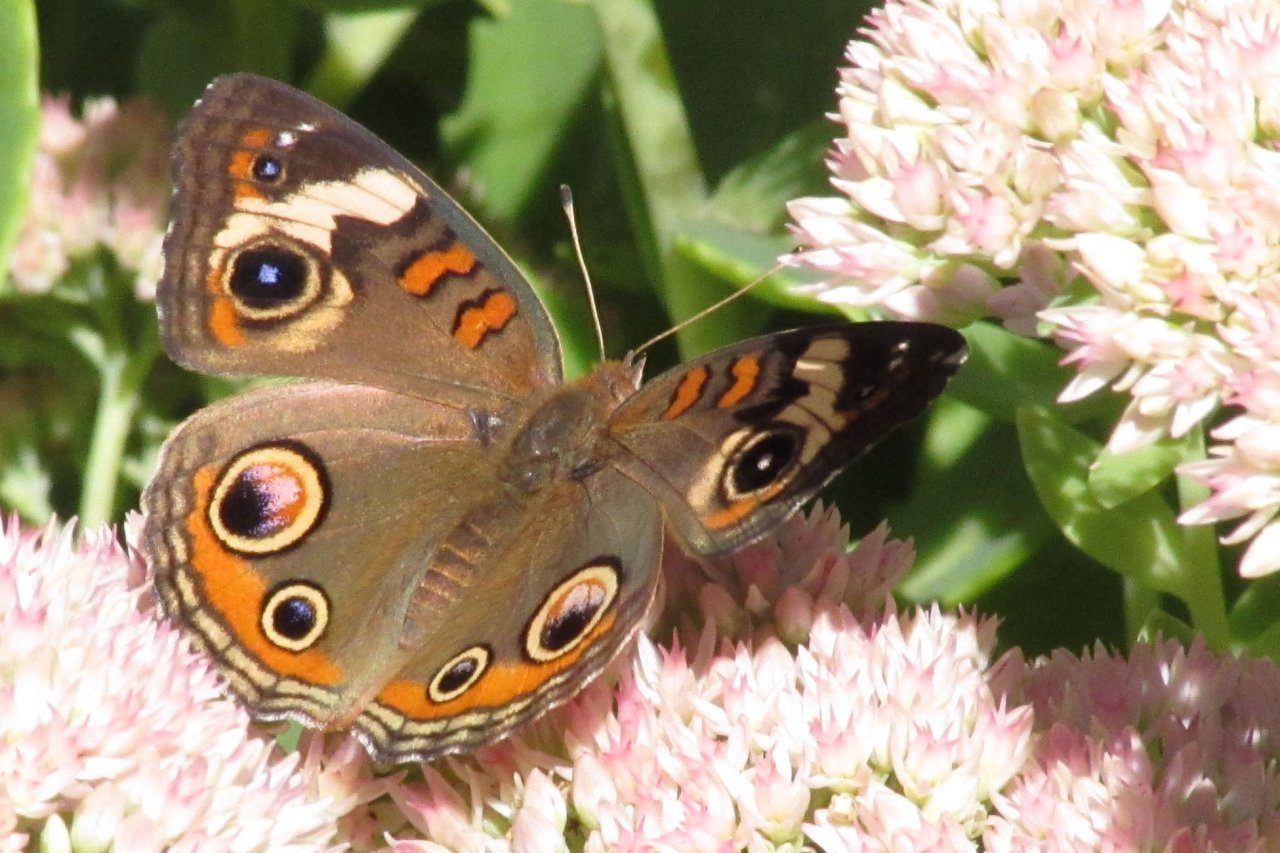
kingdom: Animalia
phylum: Arthropoda
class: Insecta
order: Lepidoptera
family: Nymphalidae
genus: Junonia
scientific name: Junonia coenia
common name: Common Buckeye
